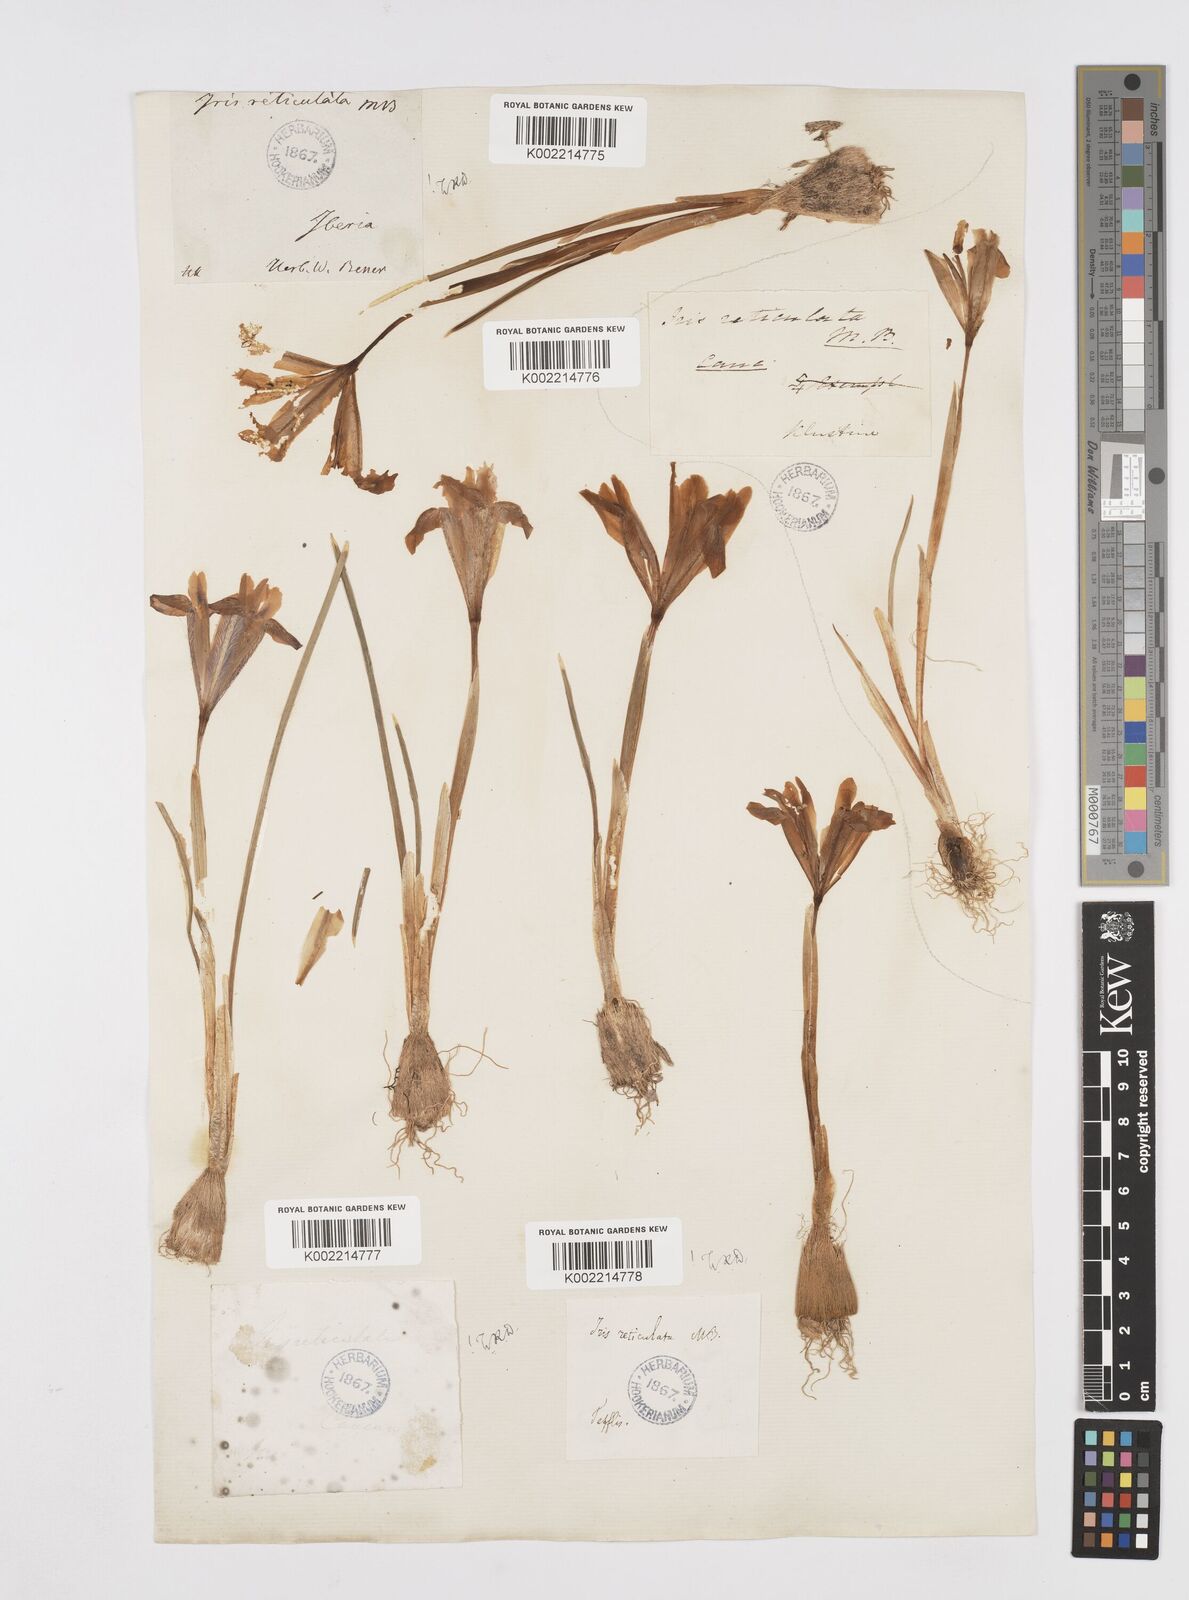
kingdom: Plantae
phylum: Tracheophyta
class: Liliopsida
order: Asparagales
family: Iridaceae
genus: Iris
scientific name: Iris reticulata
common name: Netted iris
